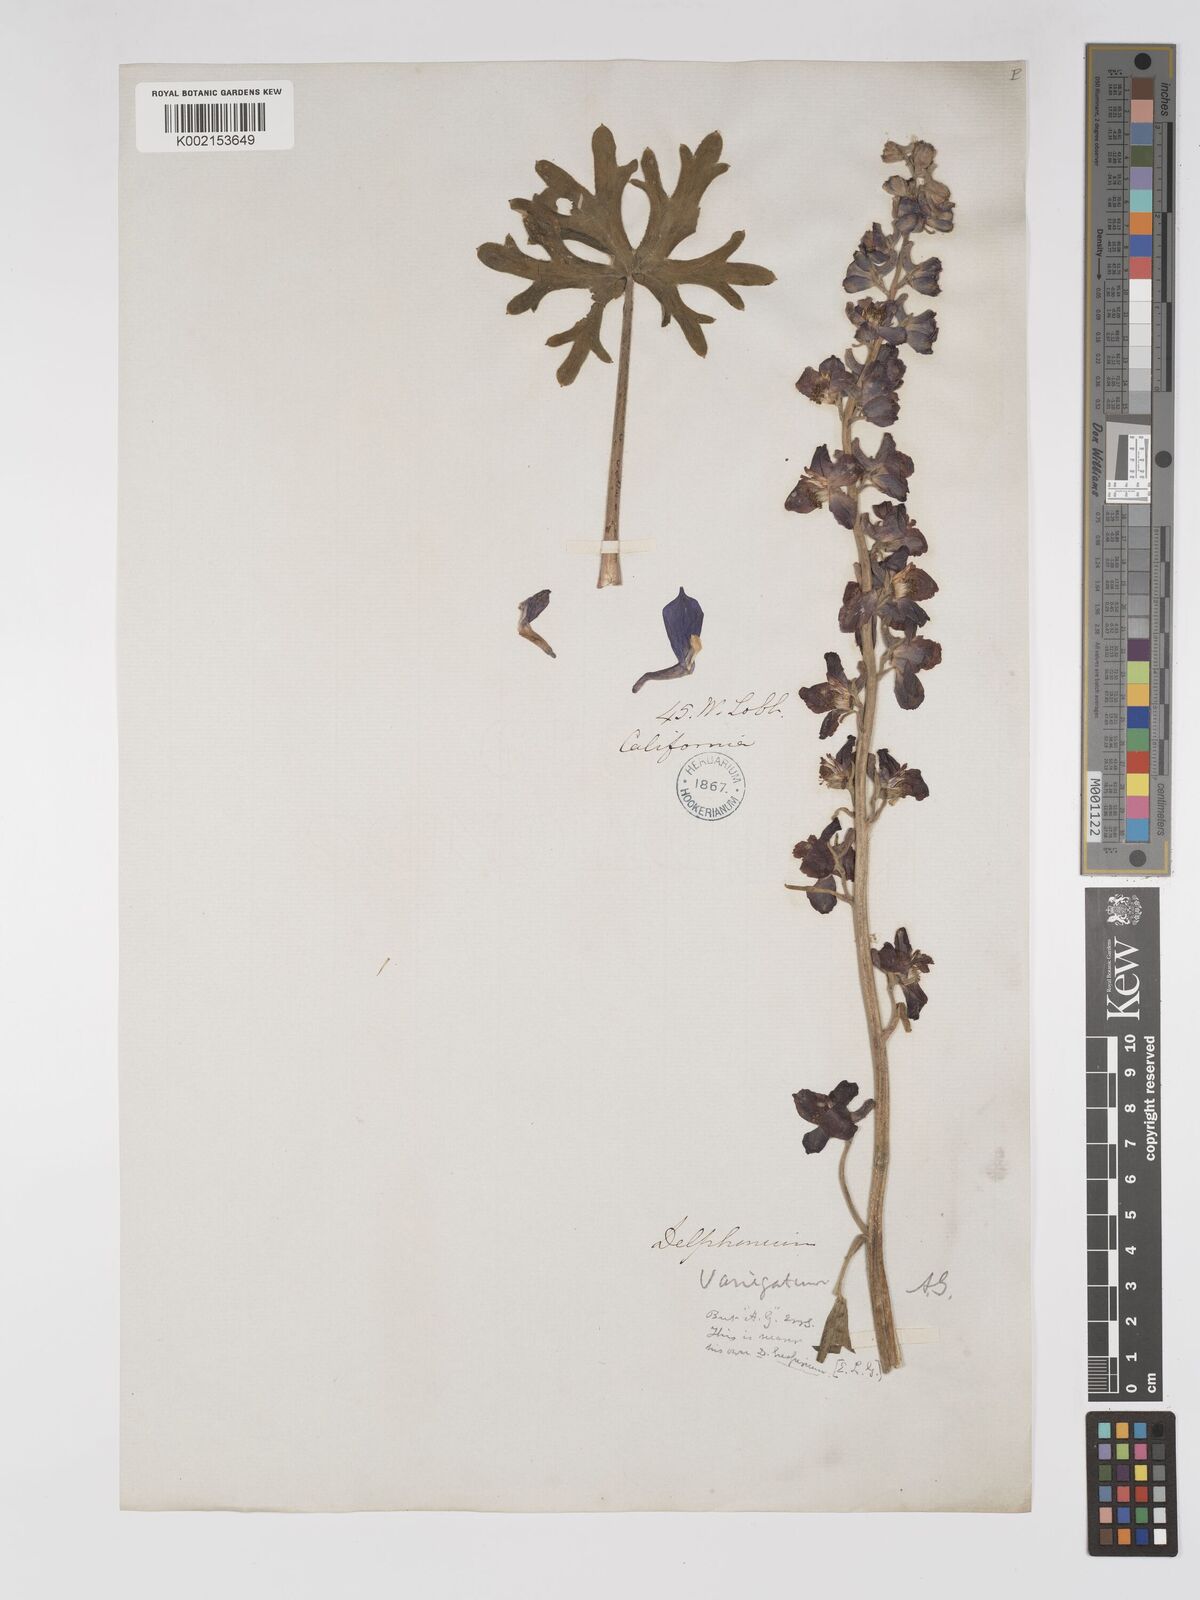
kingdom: Plantae
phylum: Tracheophyta
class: Magnoliopsida
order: Ranunculales
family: Ranunculaceae
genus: Delphinium
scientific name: Delphinium hesperium
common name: Western larkspur
